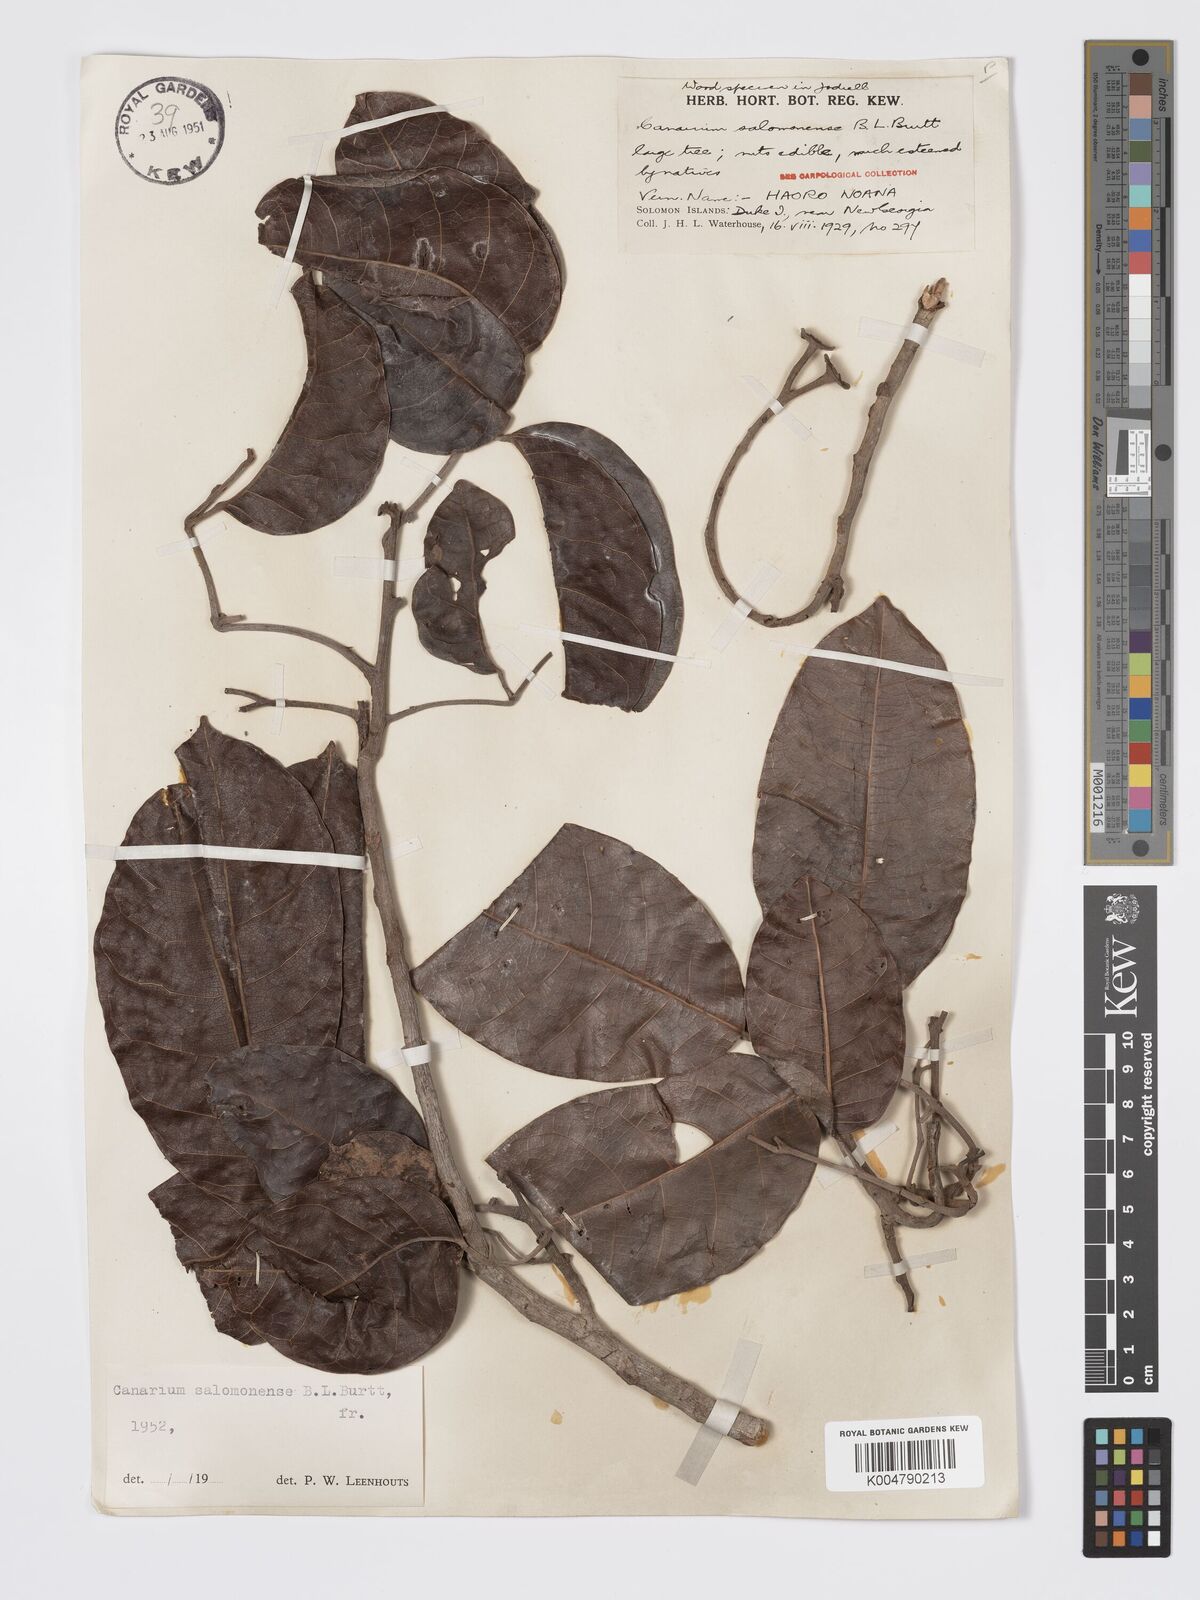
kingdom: Plantae
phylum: Tracheophyta
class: Magnoliopsida
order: Sapindales
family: Burseraceae
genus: Canarium
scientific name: Canarium salomonense
